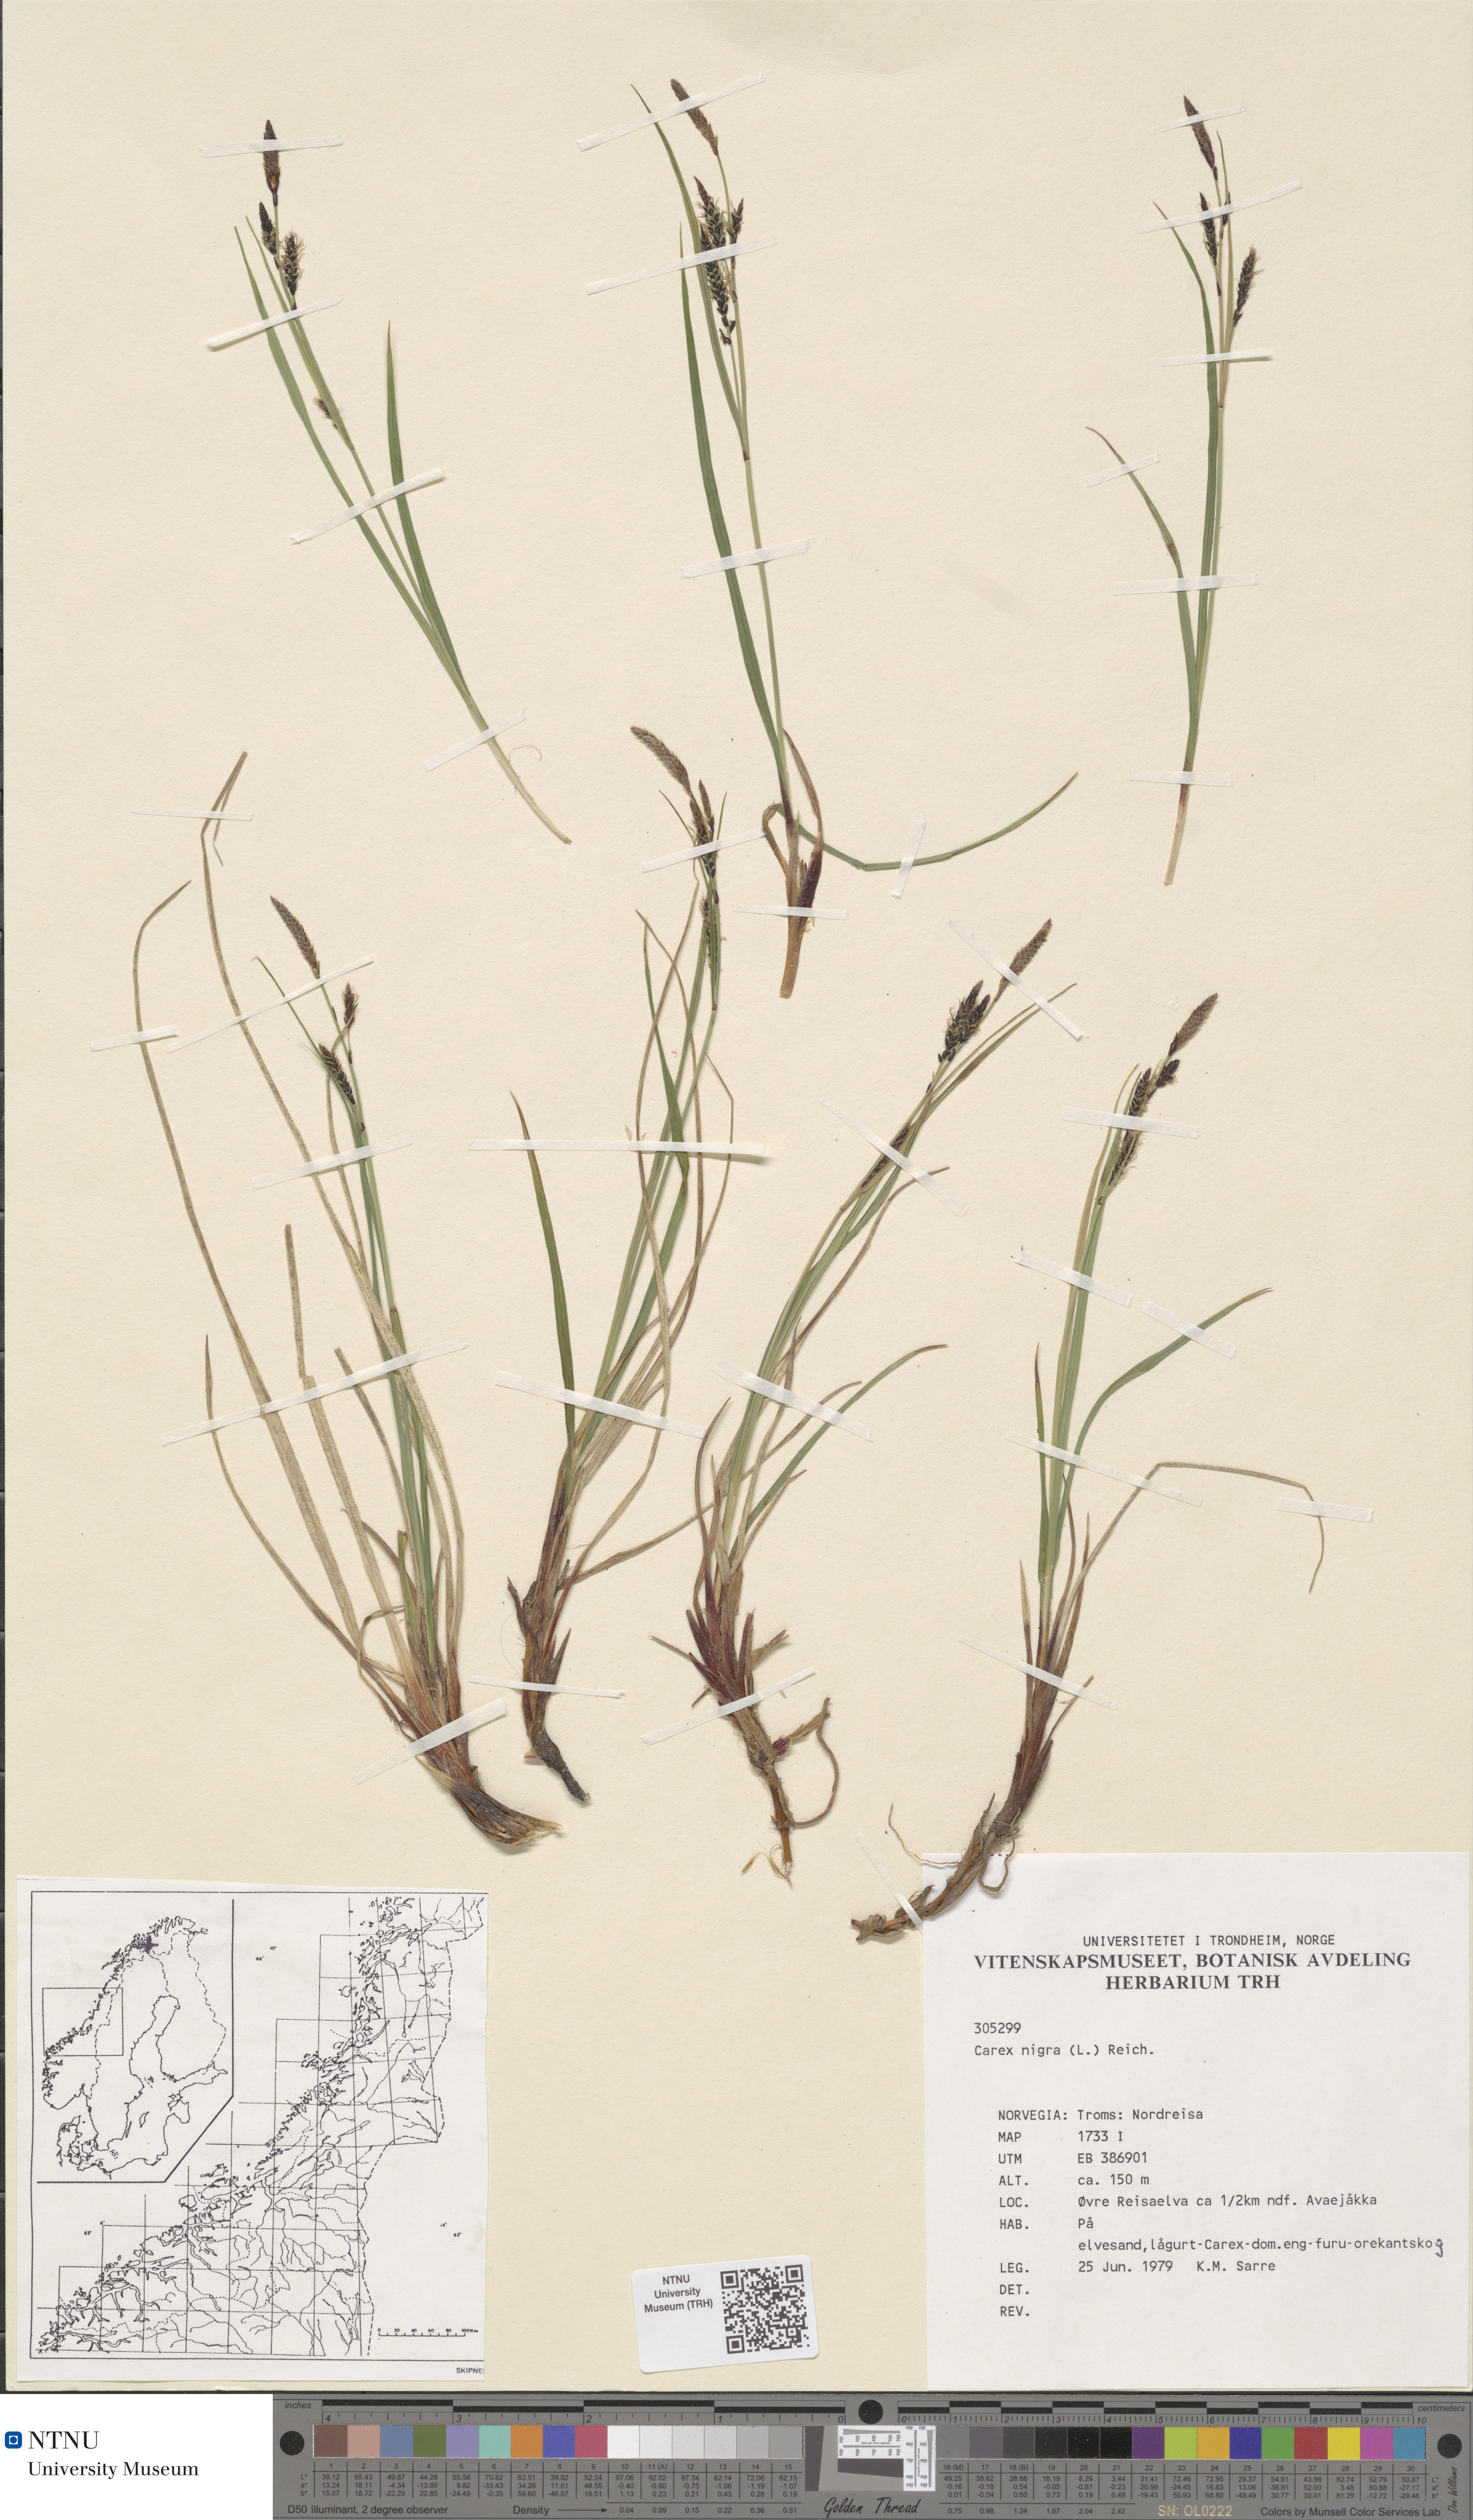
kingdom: Plantae
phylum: Tracheophyta
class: Liliopsida
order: Poales
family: Cyperaceae
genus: Carex
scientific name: Carex nigra
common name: Common sedge
